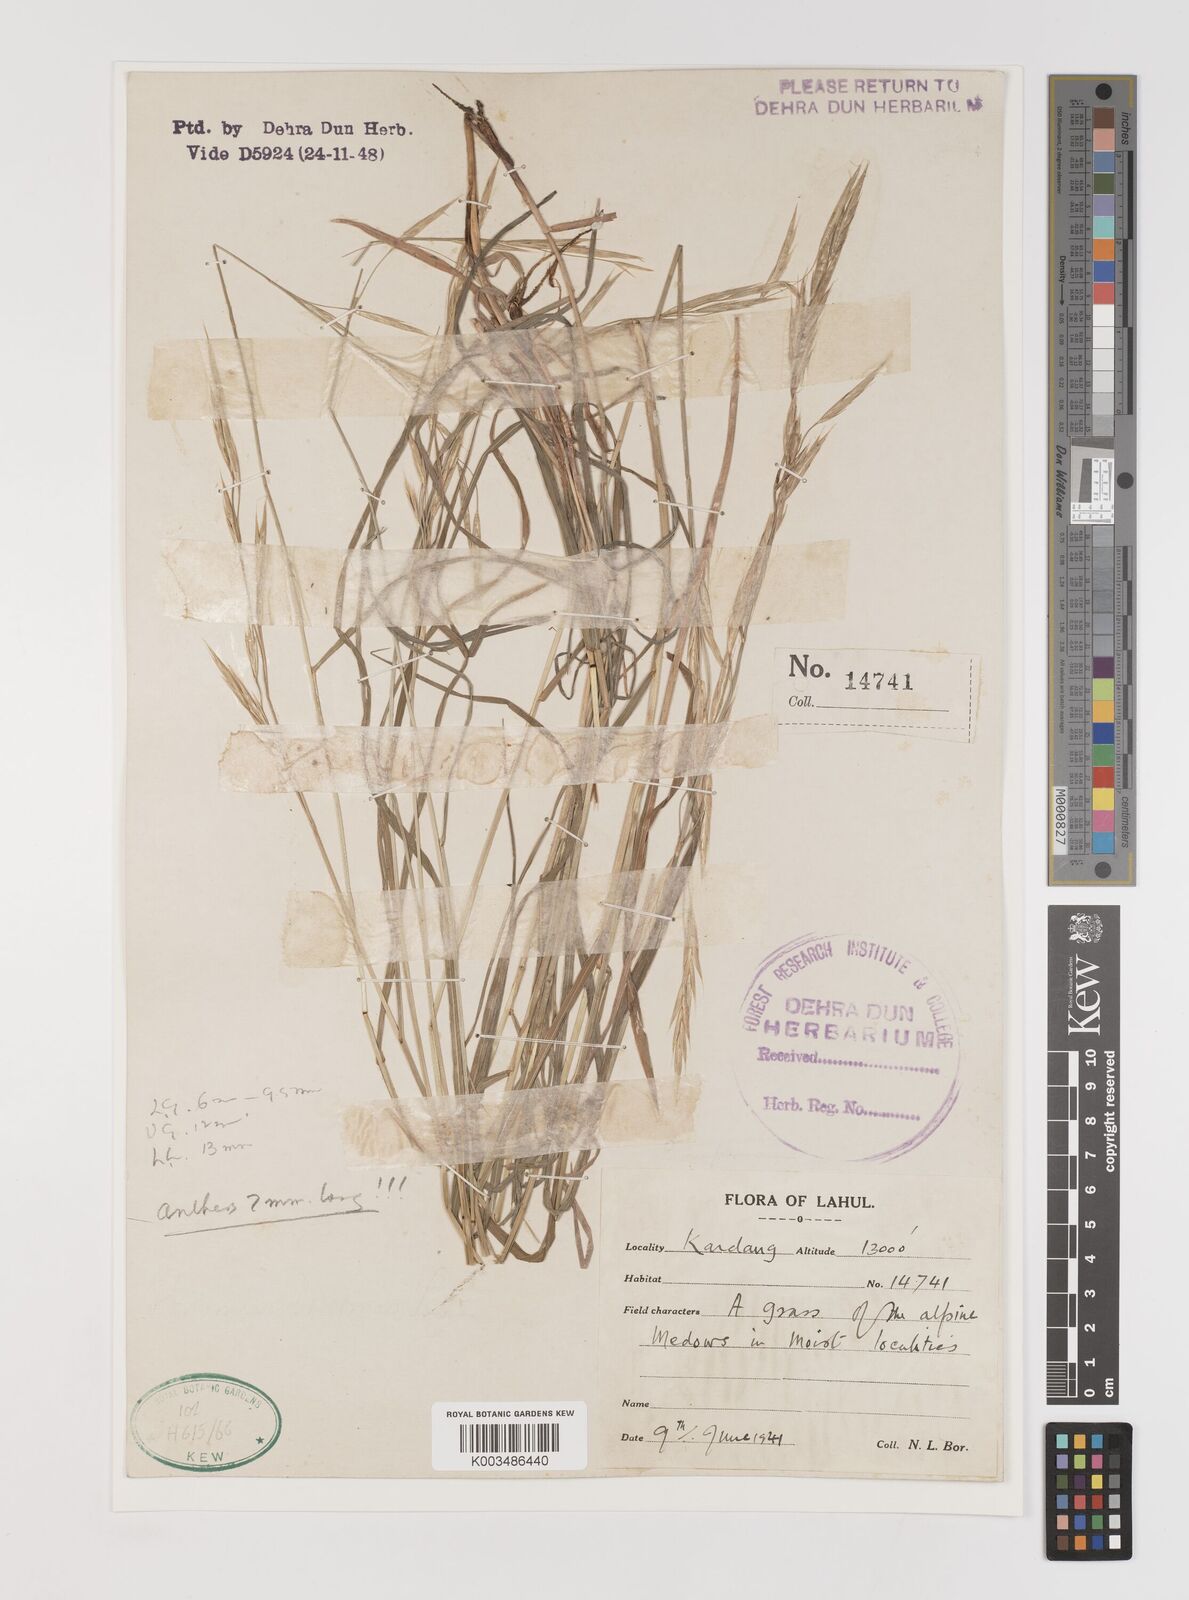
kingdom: Plantae
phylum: Tracheophyta
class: Liliopsida
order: Poales
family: Poaceae
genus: Bromus
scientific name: Bromus confinis
